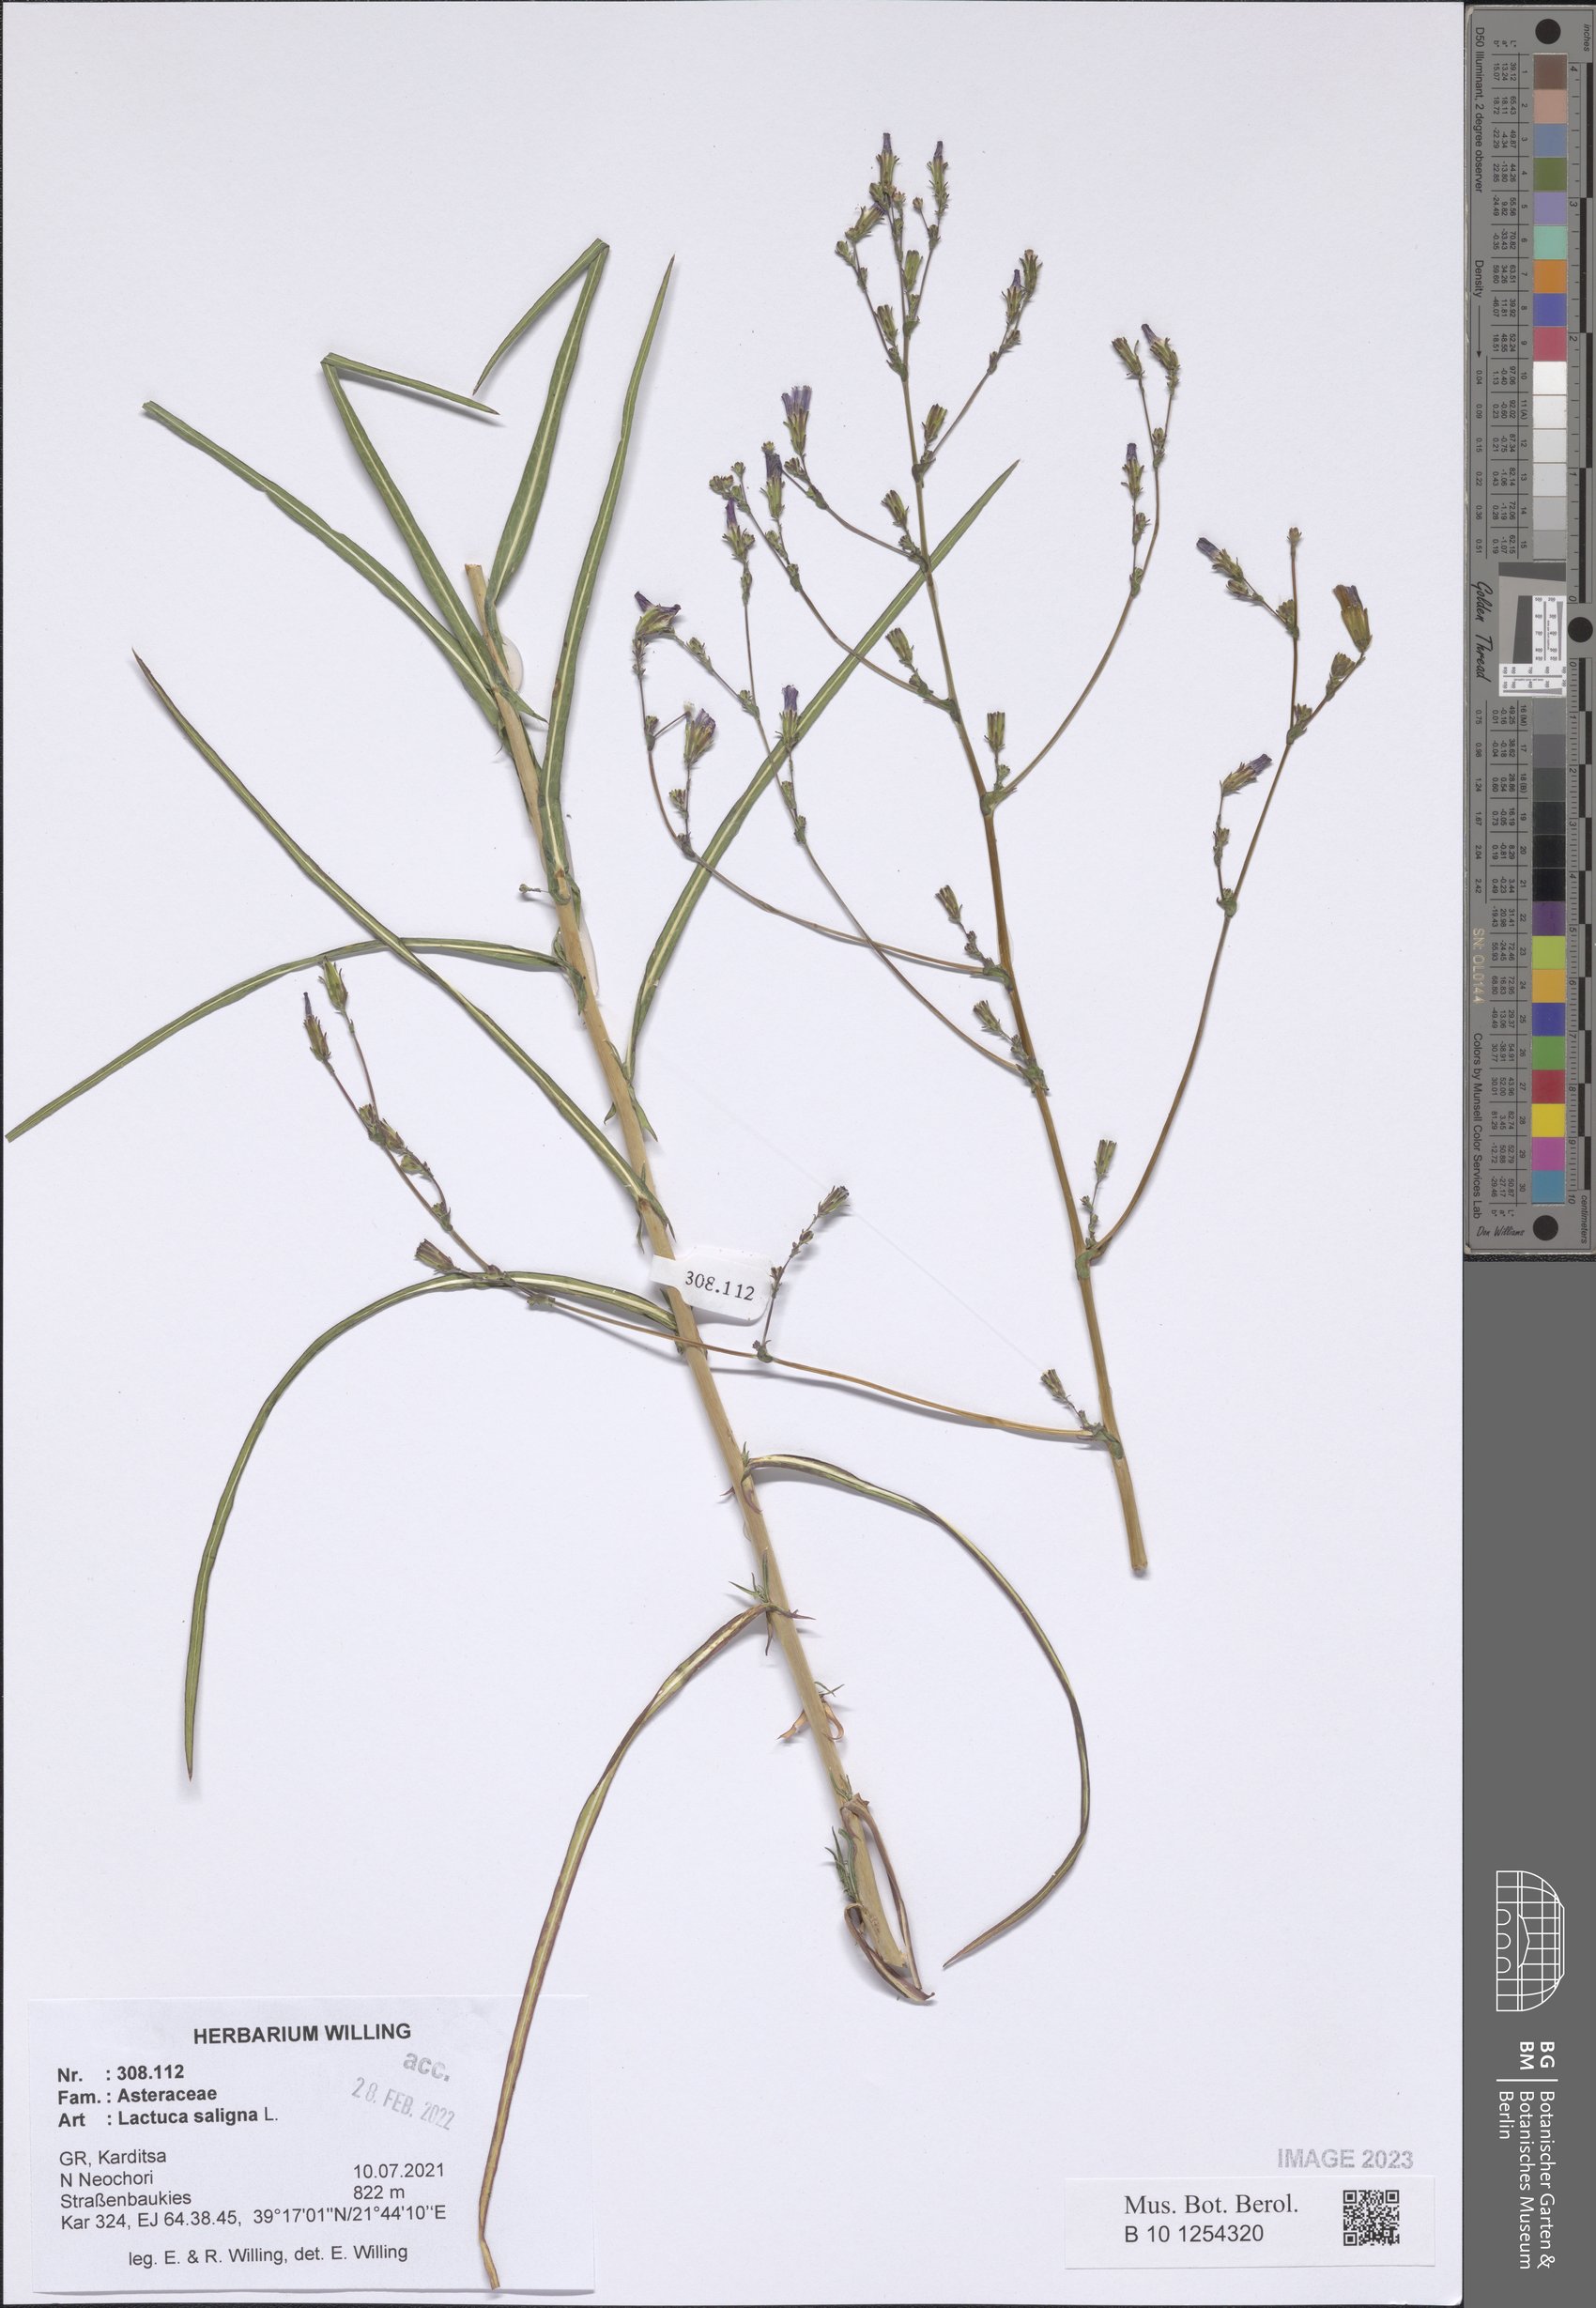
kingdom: Plantae
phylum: Tracheophyta
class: Magnoliopsida
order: Asterales
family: Asteraceae
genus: Lactuca
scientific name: Lactuca saligna
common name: Wild lettuce
